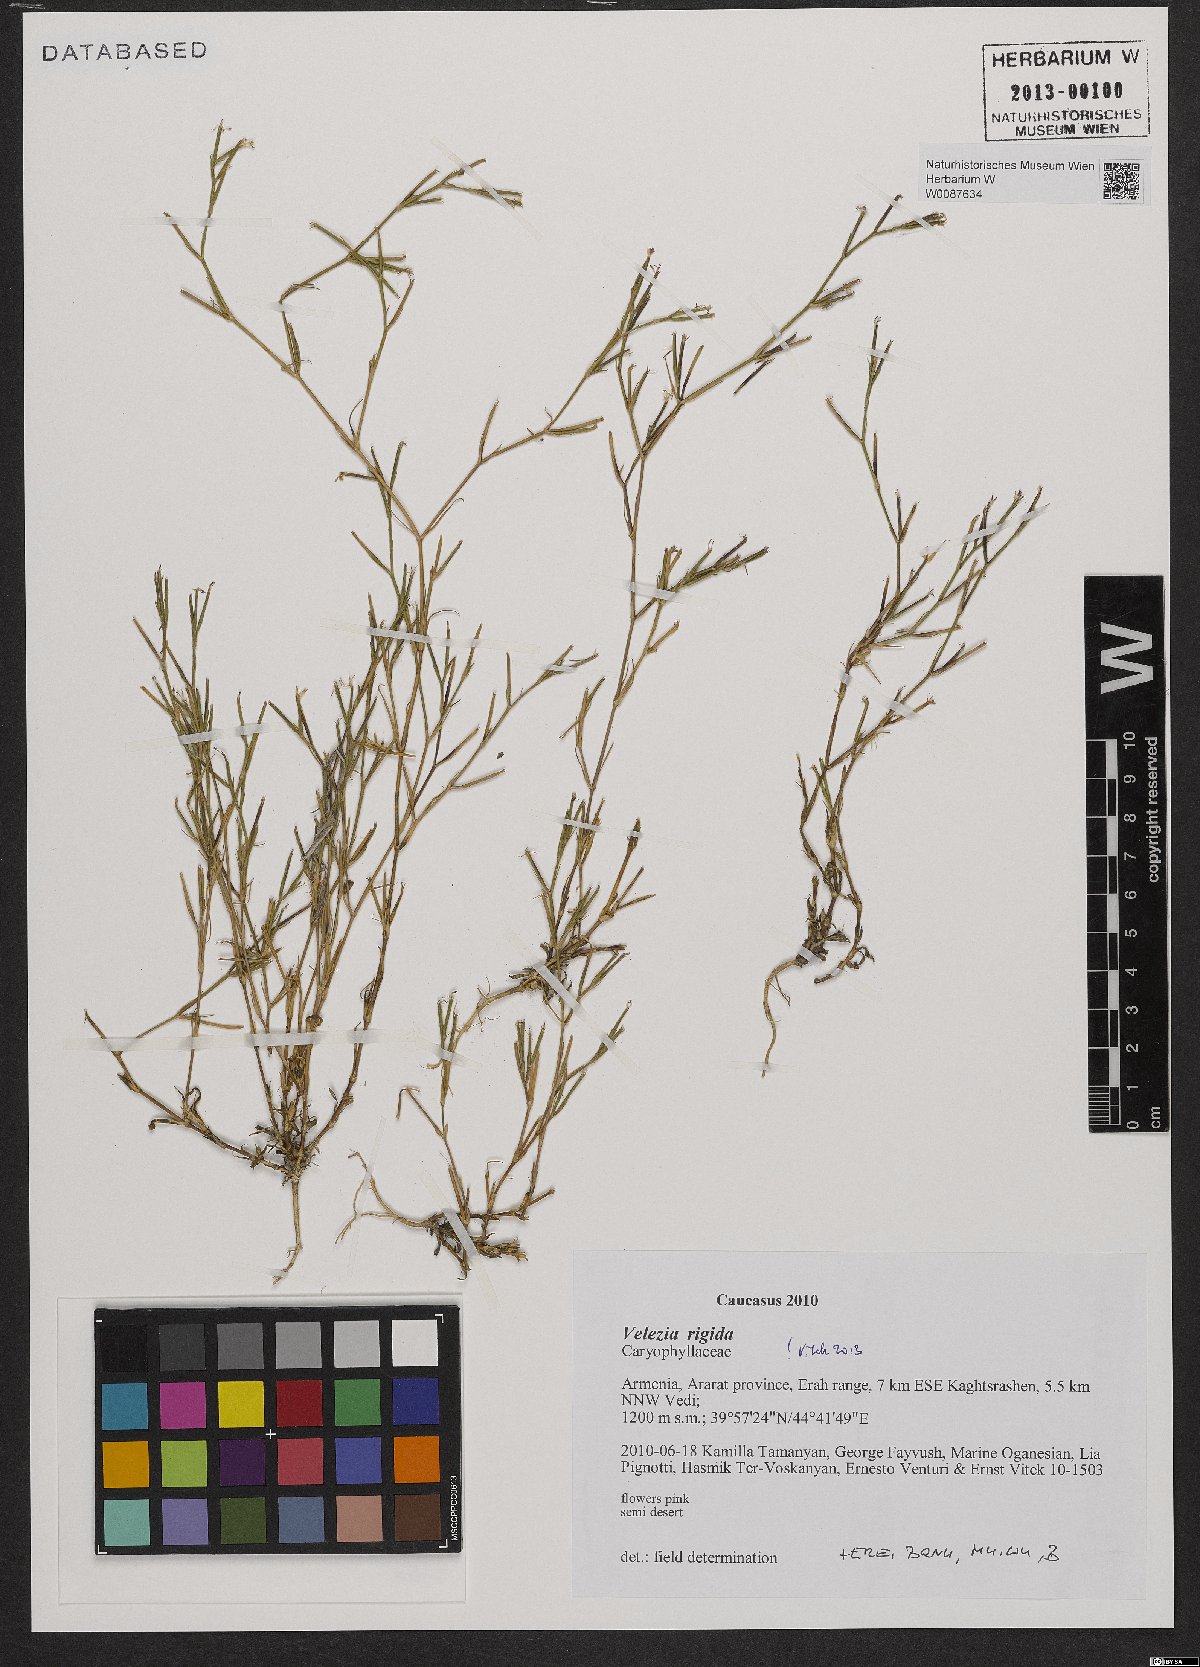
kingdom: Plantae
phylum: Tracheophyta
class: Magnoliopsida
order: Caryophyllales
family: Caryophyllaceae
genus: Dianthus
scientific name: Dianthus nudiflorus
